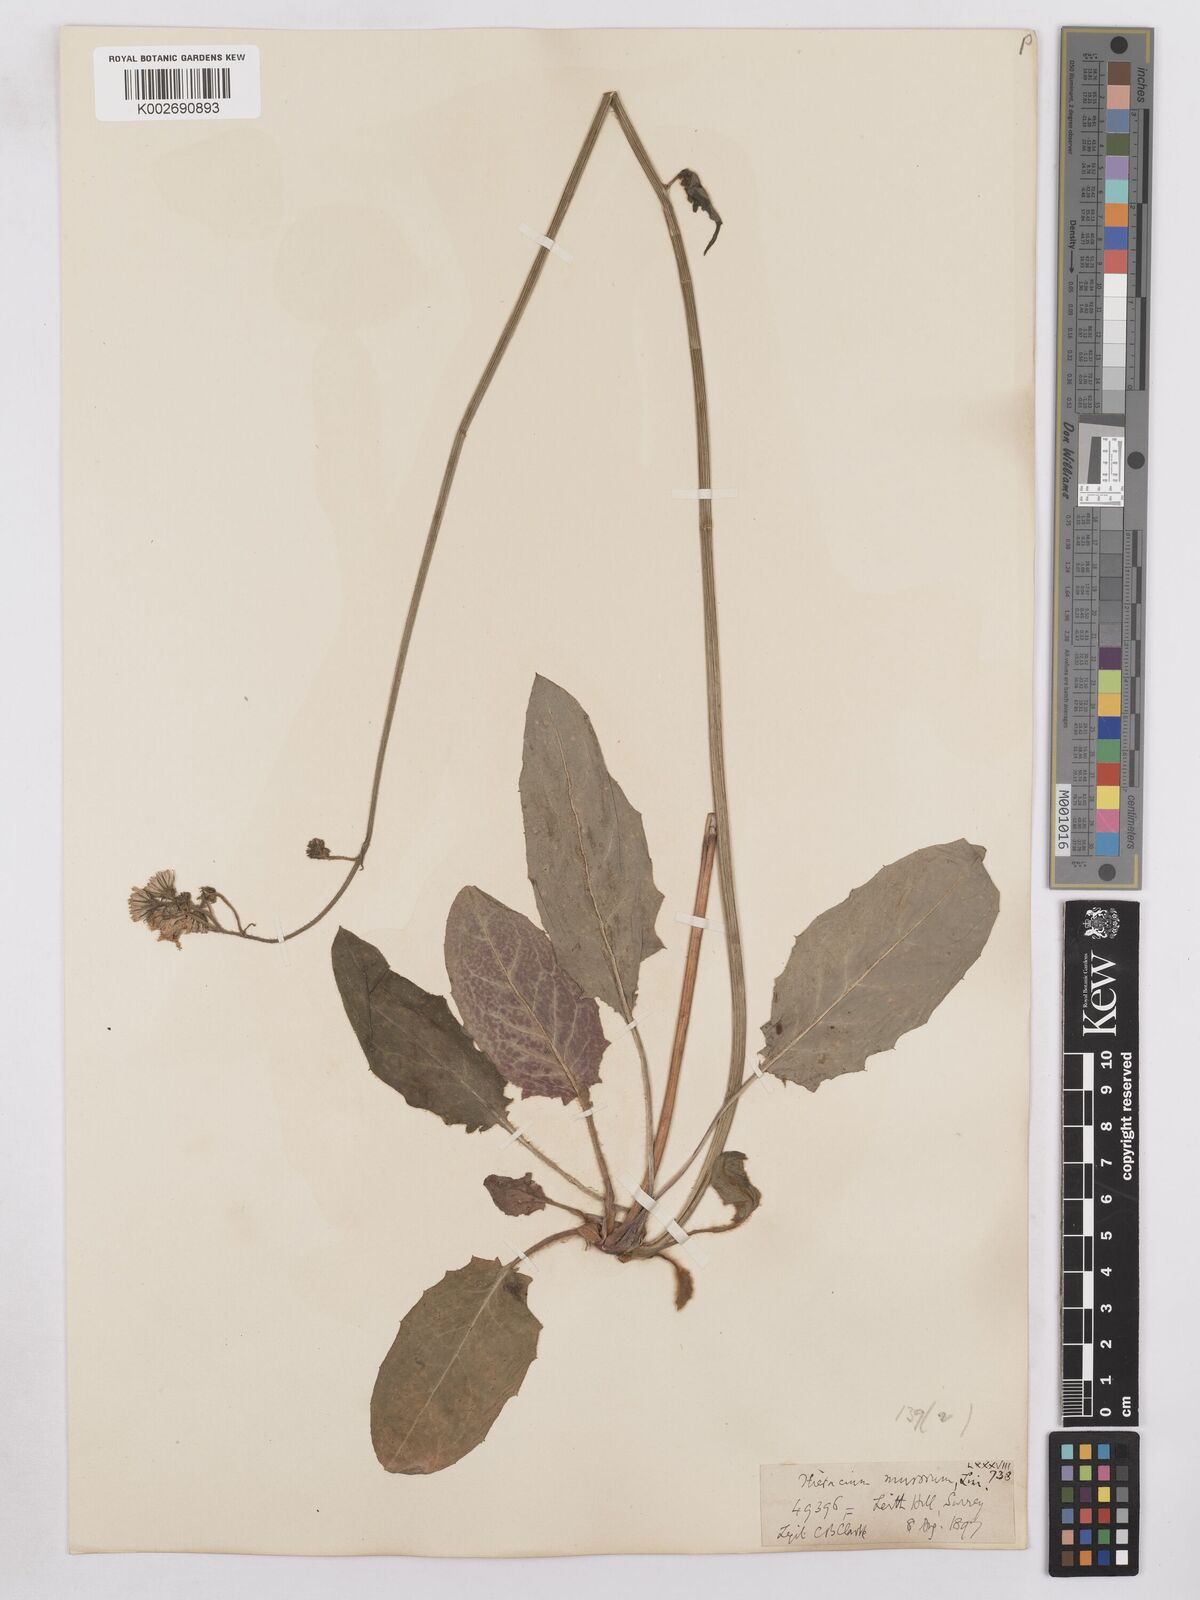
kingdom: Plantae
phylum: Tracheophyta
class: Magnoliopsida
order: Asterales
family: Asteraceae
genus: Hieracium
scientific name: Hieracium murorum
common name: Wall hawkweed
